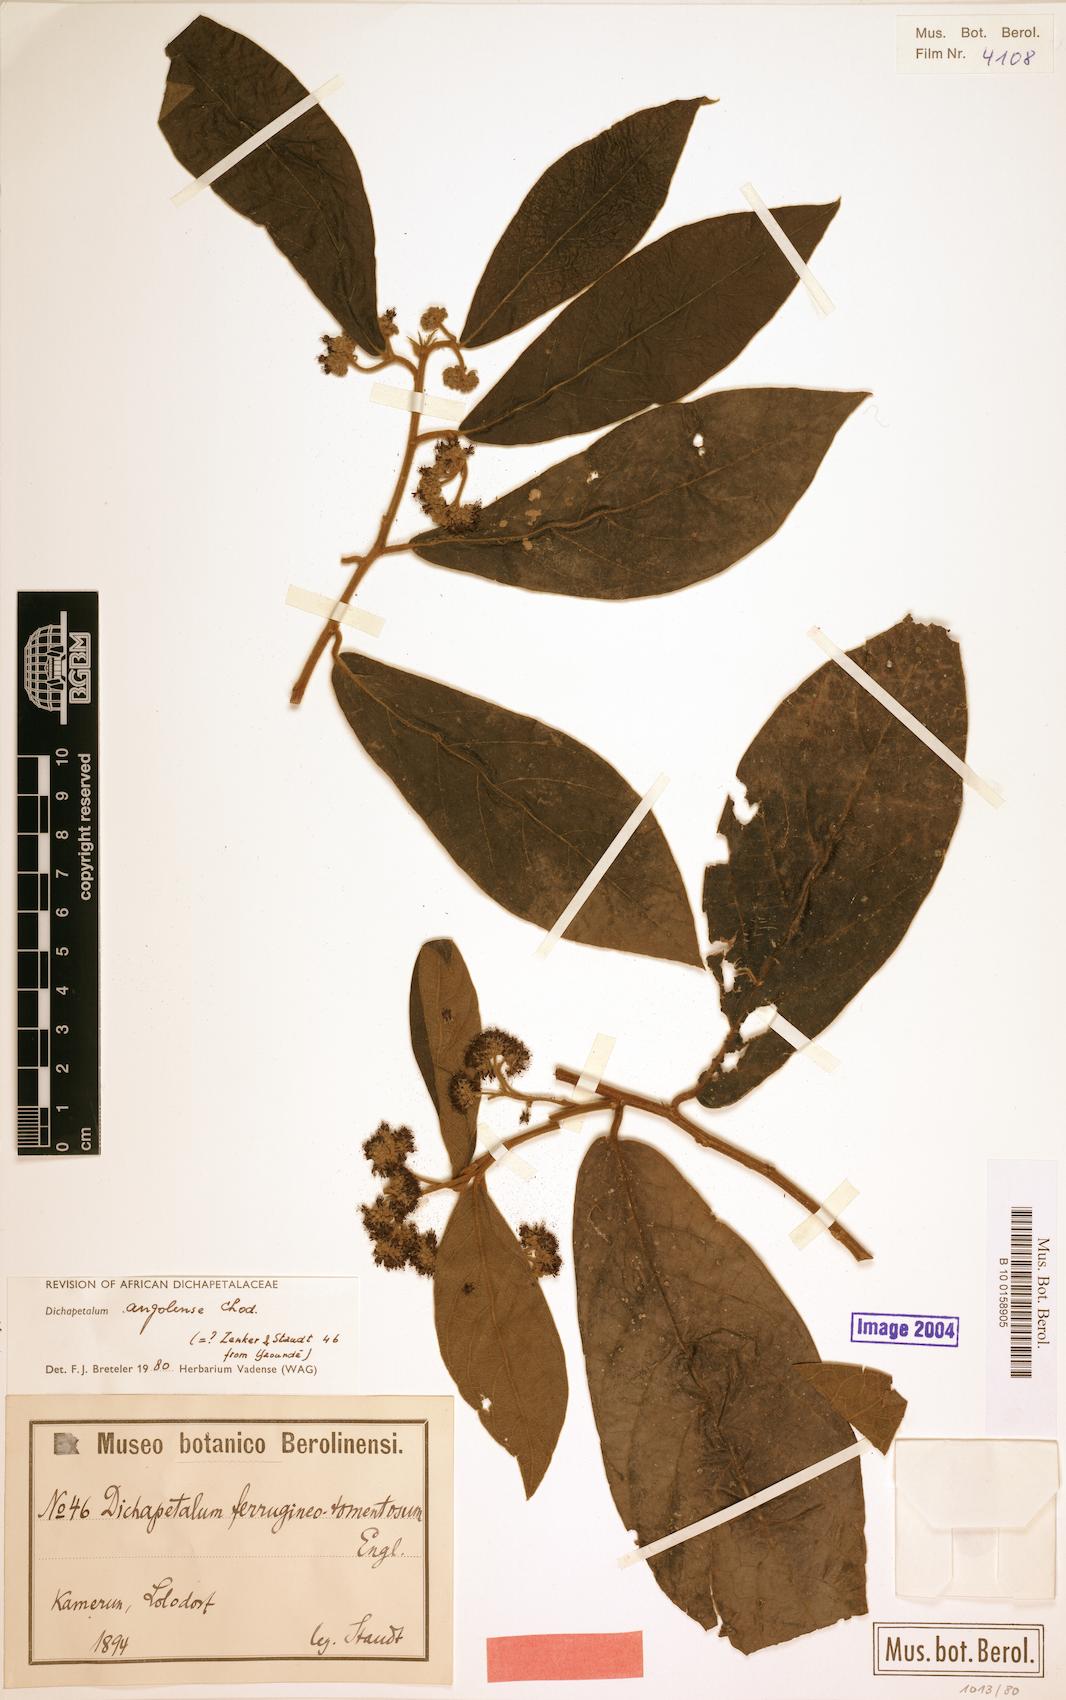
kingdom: Plantae
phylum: Tracheophyta
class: Magnoliopsida
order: Malpighiales
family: Dichapetalaceae
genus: Dichapetalum
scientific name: Dichapetalum angolense
